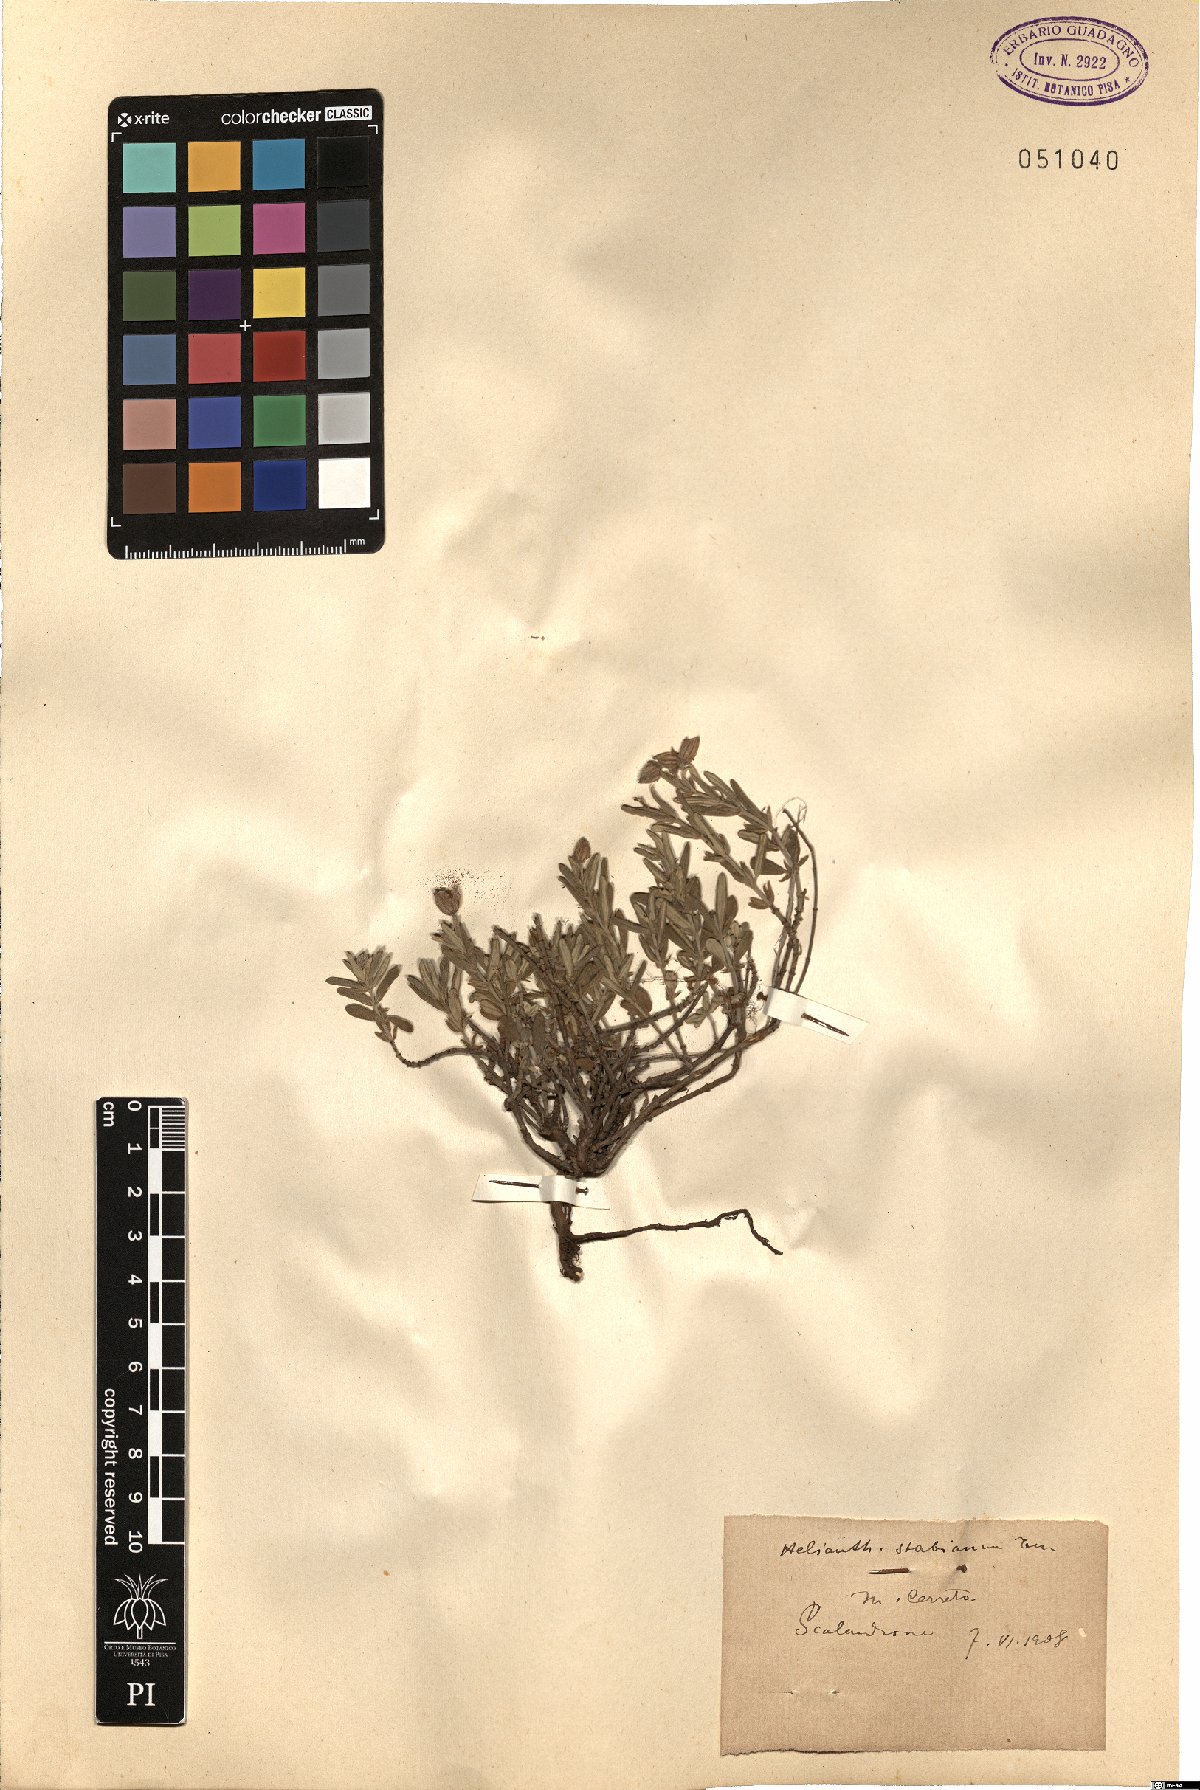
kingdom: Plantae
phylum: Tracheophyta
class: Magnoliopsida
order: Malvales
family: Cistaceae
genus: Helianthemum
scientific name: Helianthemum croceum
